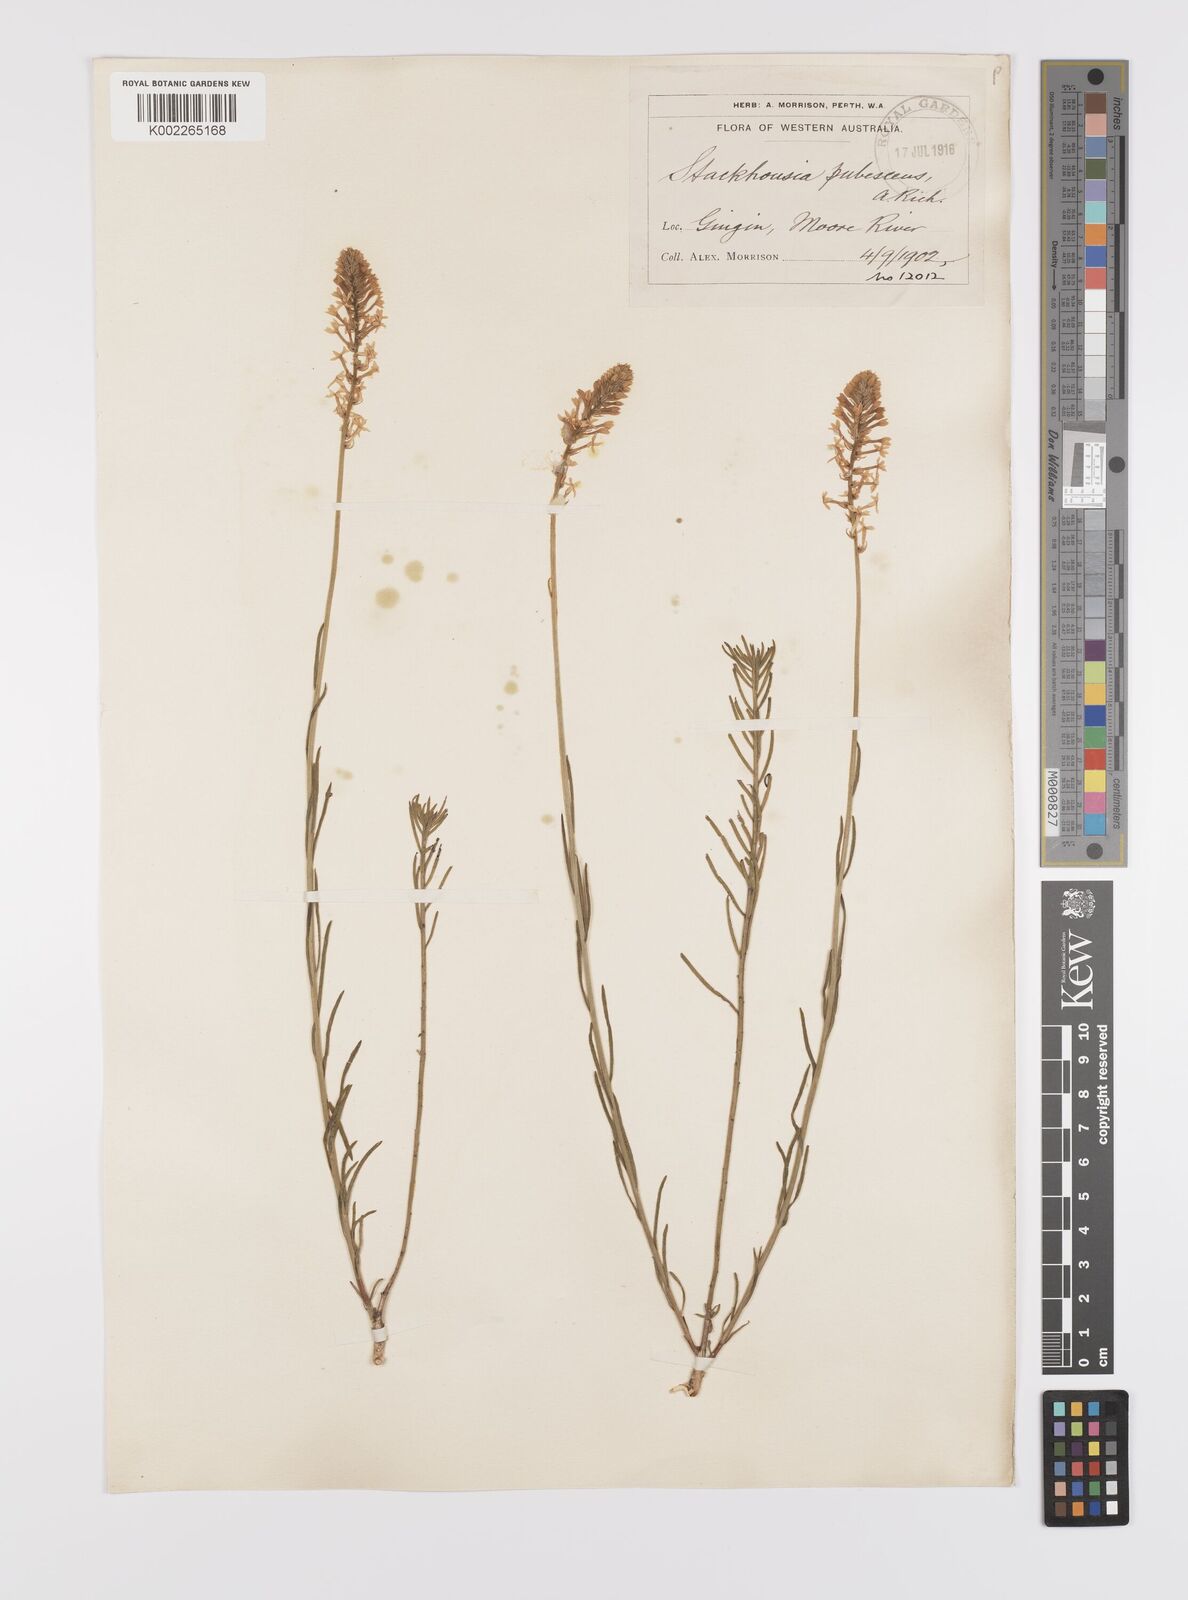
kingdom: Plantae
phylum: Tracheophyta
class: Magnoliopsida
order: Celastrales
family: Celastraceae
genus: Stackhousia
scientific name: Stackhousia monogyna
